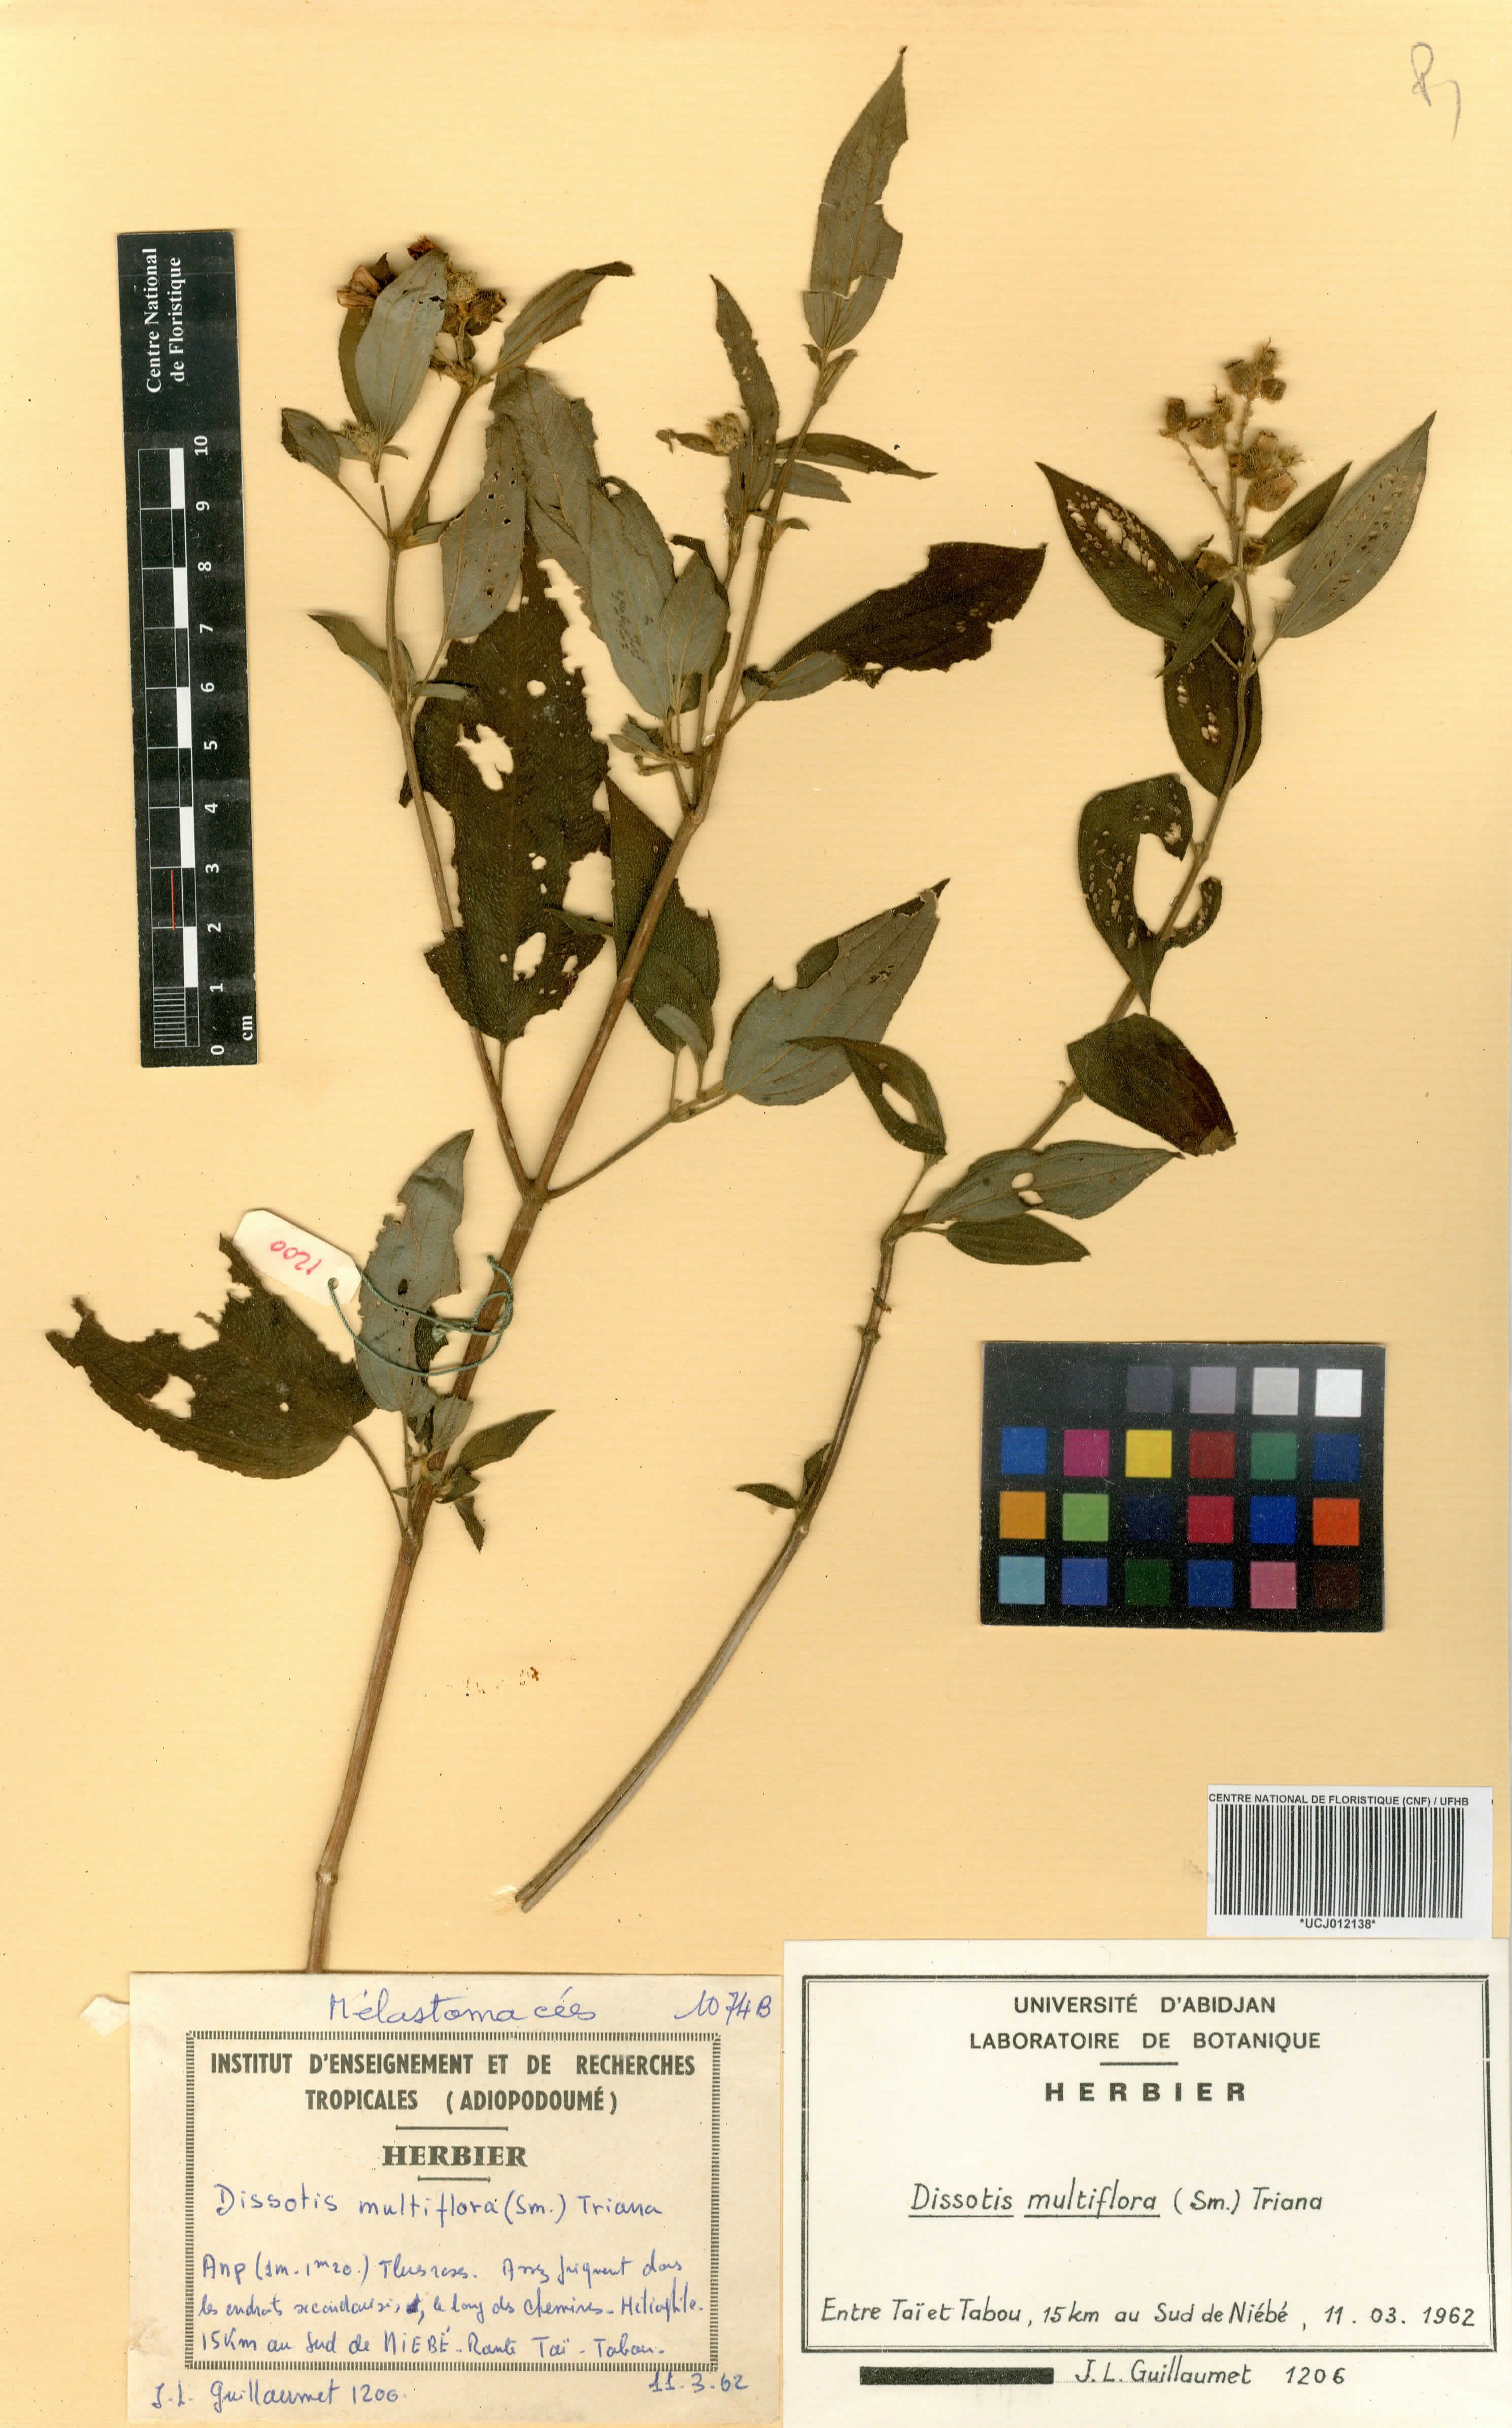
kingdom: Plantae
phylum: Tracheophyta
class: Magnoliopsida
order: Myrtales
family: Melastomataceae
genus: Dupineta
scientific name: Dupineta multiflora
